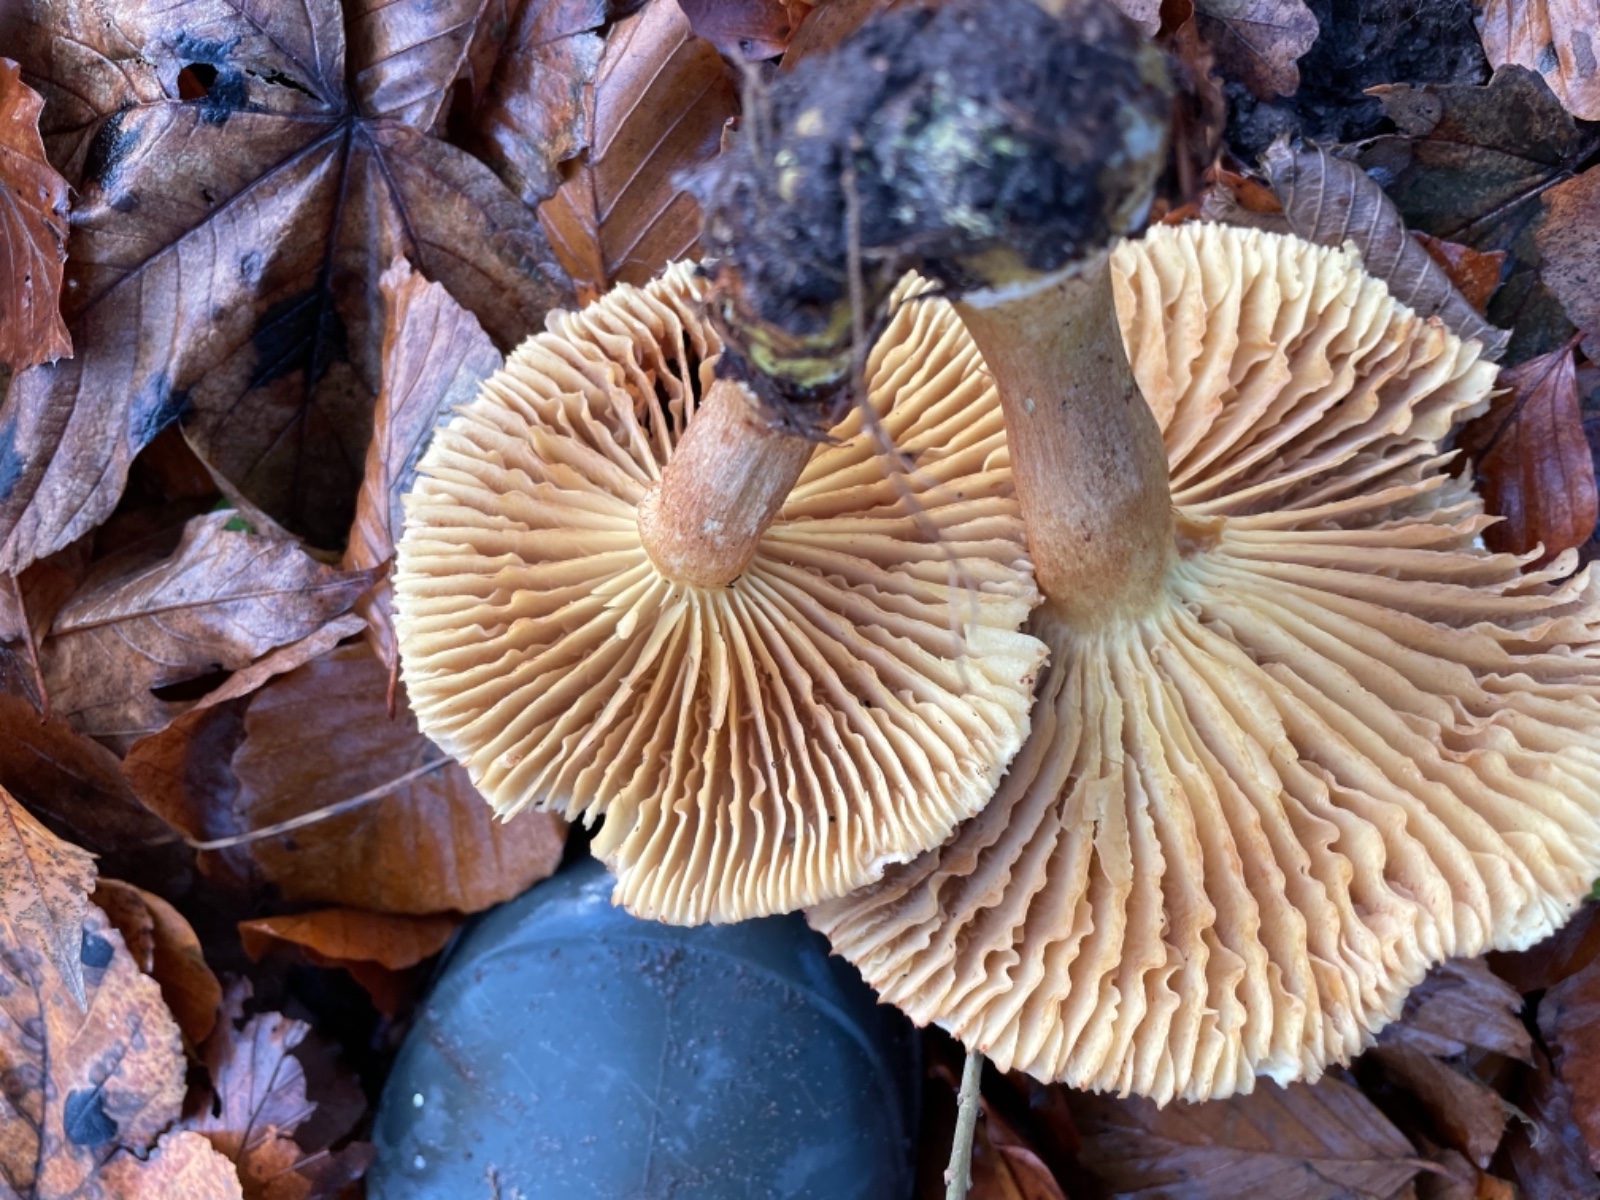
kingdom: Fungi
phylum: Basidiomycota
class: Agaricomycetes
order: Agaricales
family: Tricholomataceae
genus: Tricholoma
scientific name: Tricholoma sulphureum
